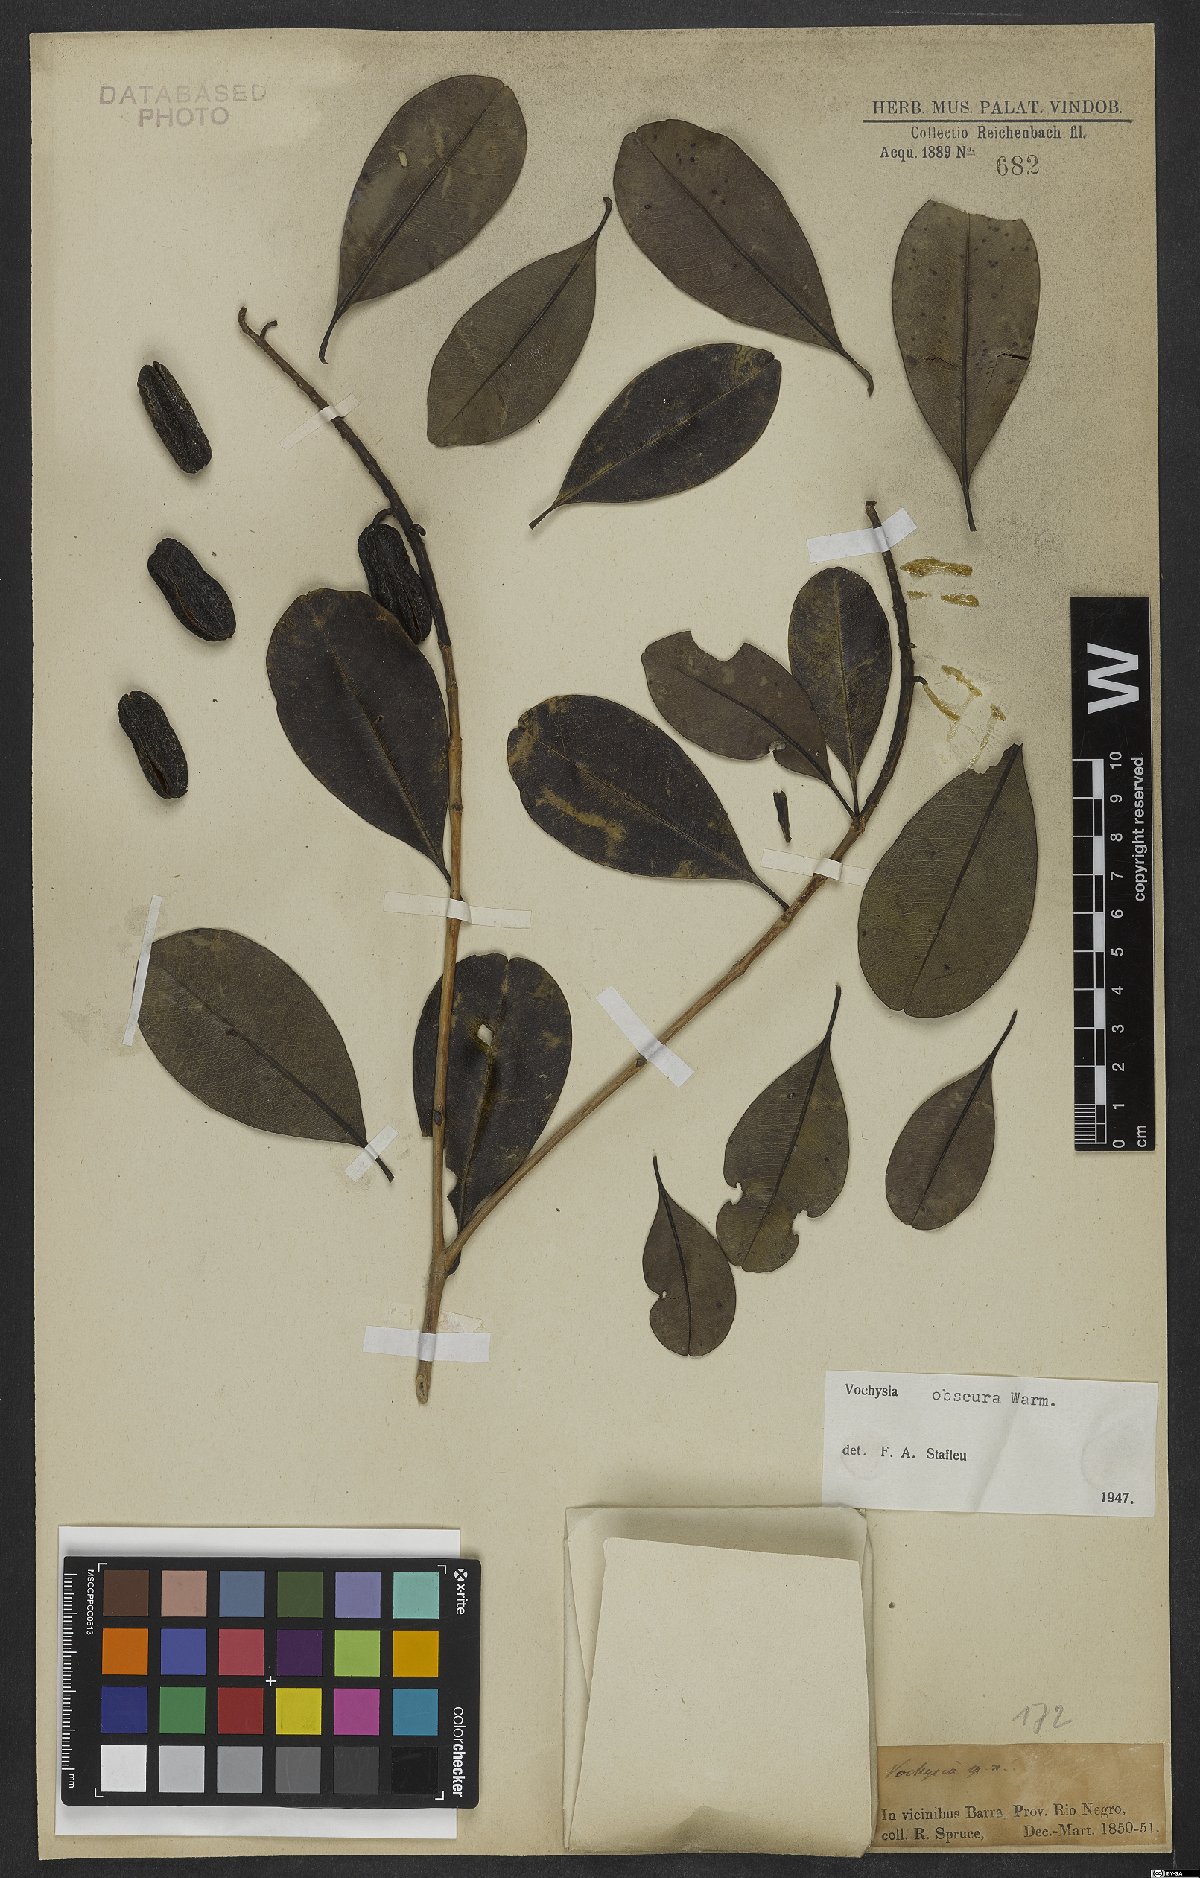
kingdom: Plantae
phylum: Tracheophyta
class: Magnoliopsida
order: Myrtales
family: Vochysiaceae
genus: Vochysia
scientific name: Vochysia obscura
